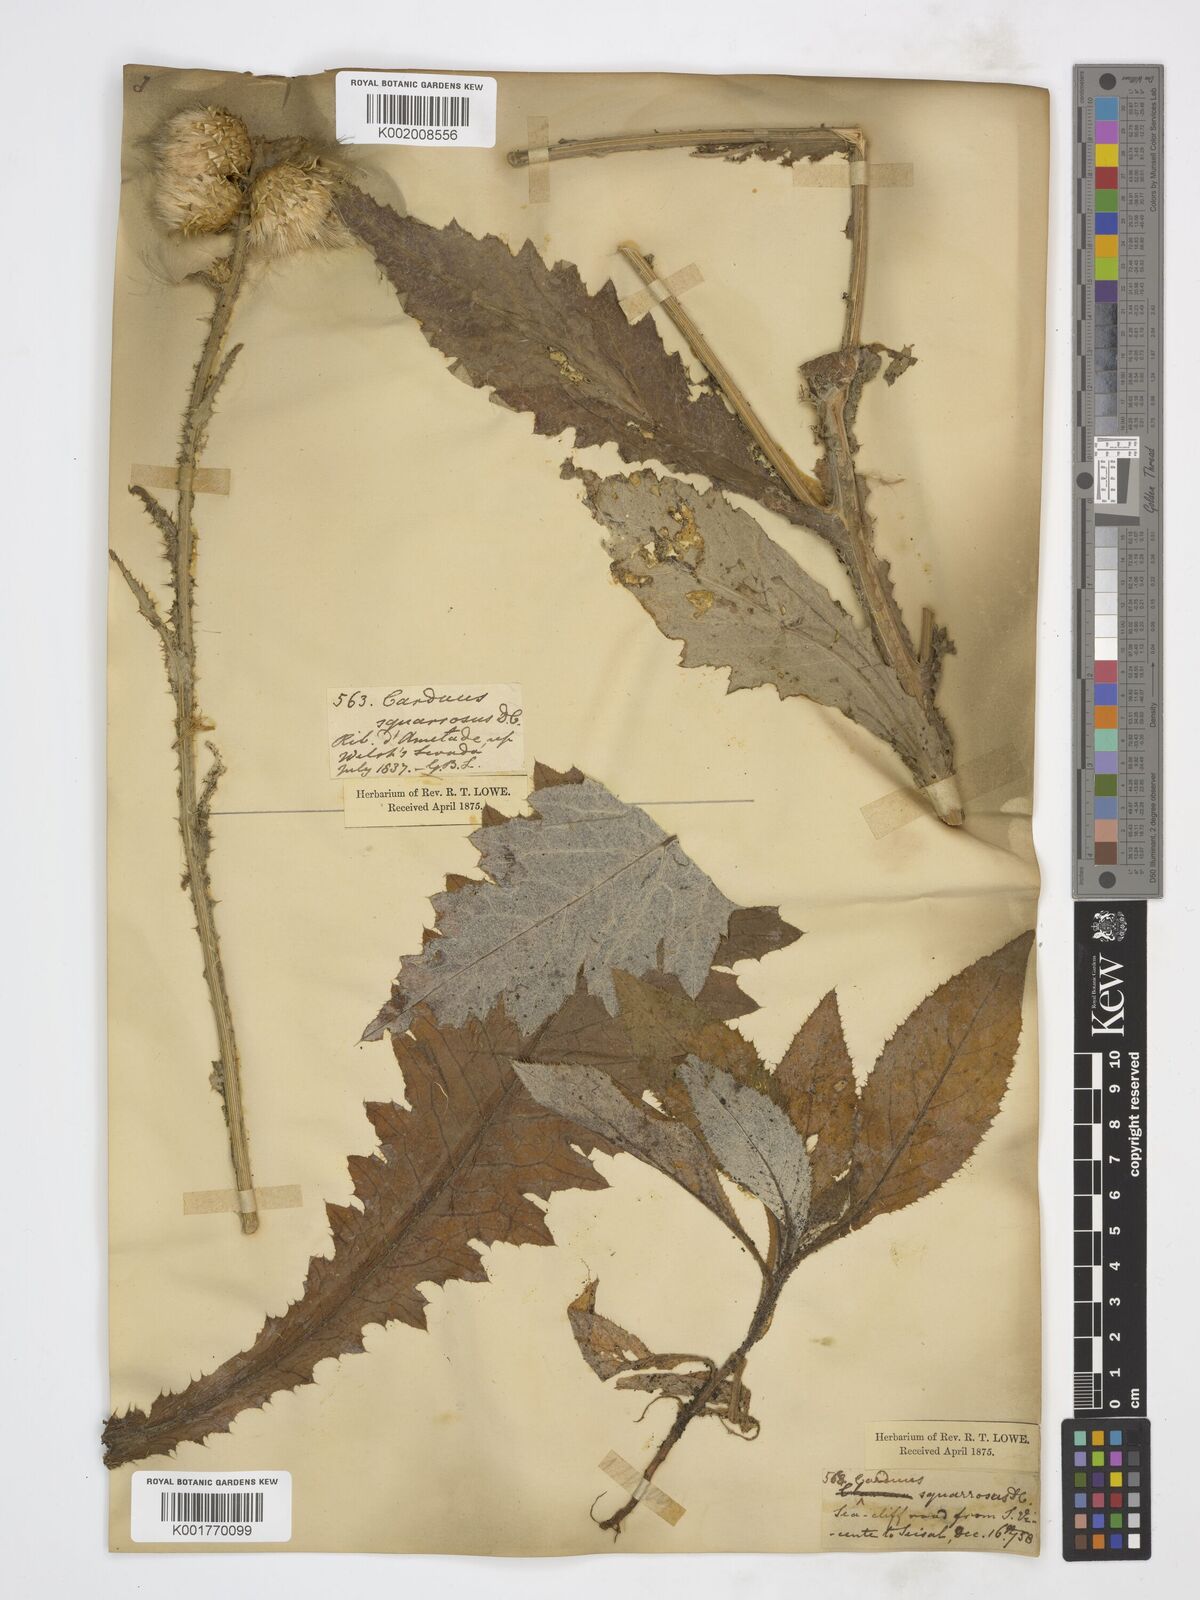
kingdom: Plantae
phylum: Tracheophyta
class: Magnoliopsida
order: Asterales
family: Asteraceae
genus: Carduus
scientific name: Carduus squarrosus
